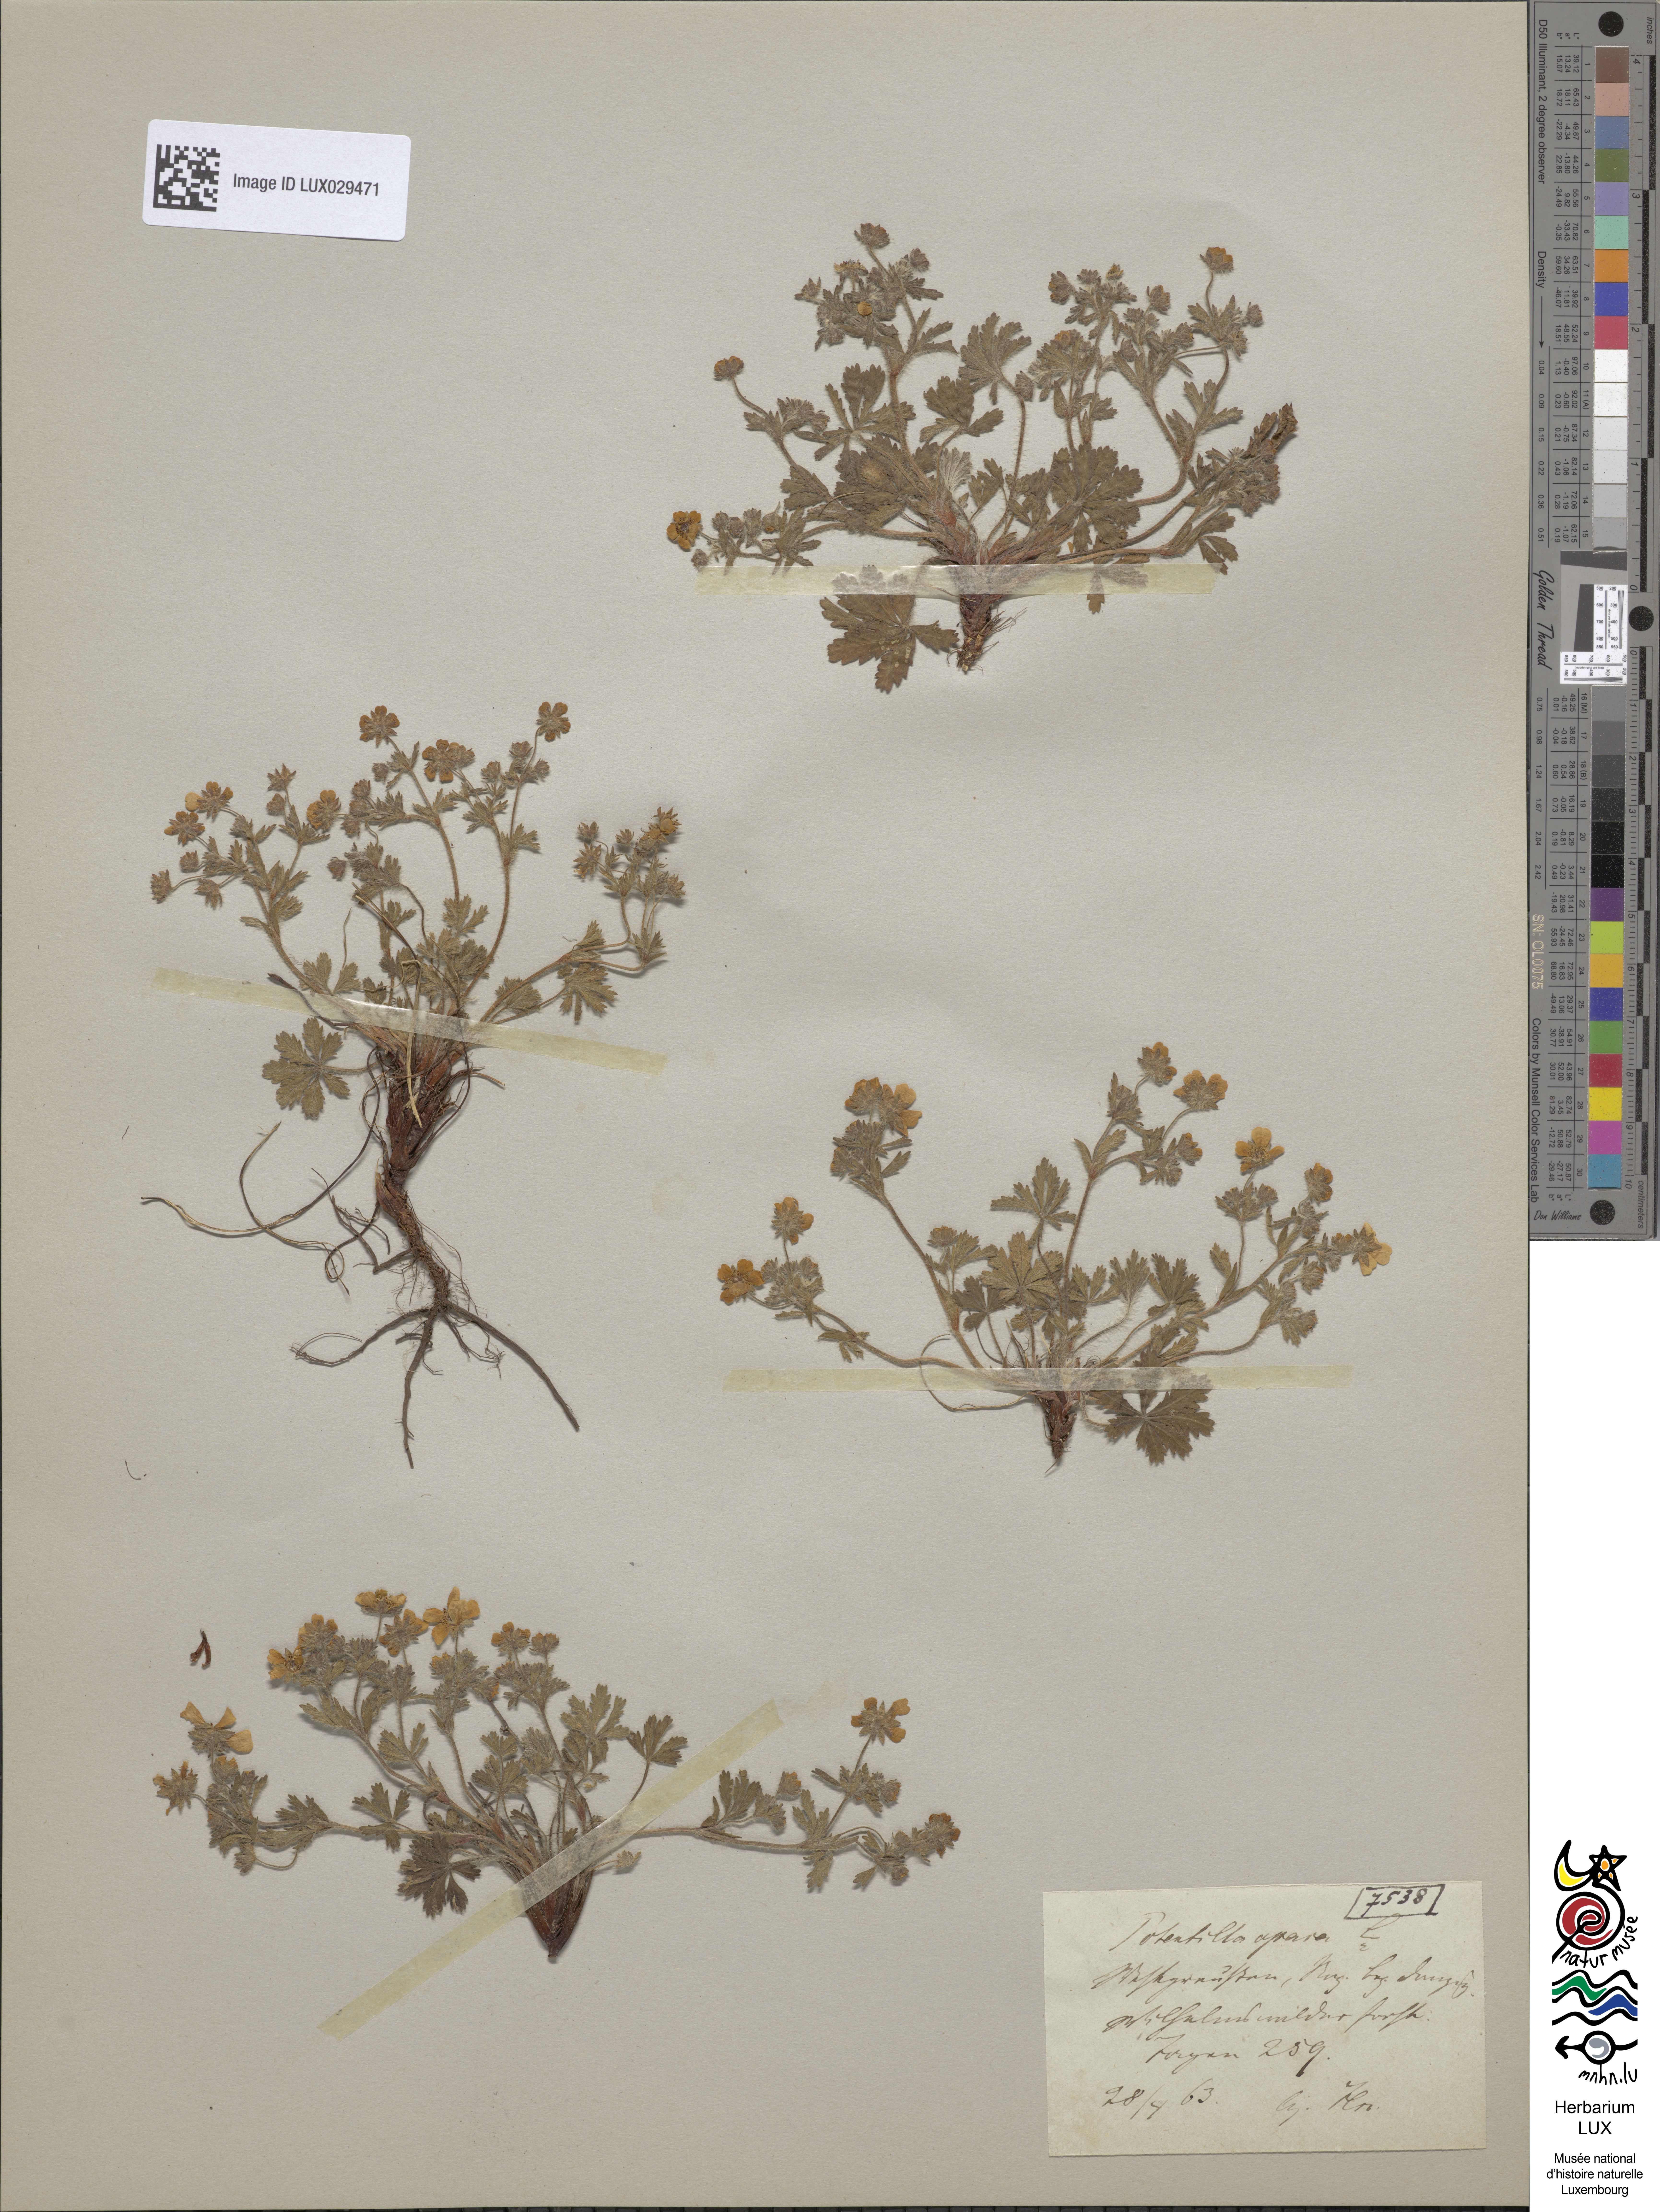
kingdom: Plantae
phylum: Tracheophyta
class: Magnoliopsida
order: Rosales
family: Rosaceae
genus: Potentilla
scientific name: Potentilla heptaphylla
